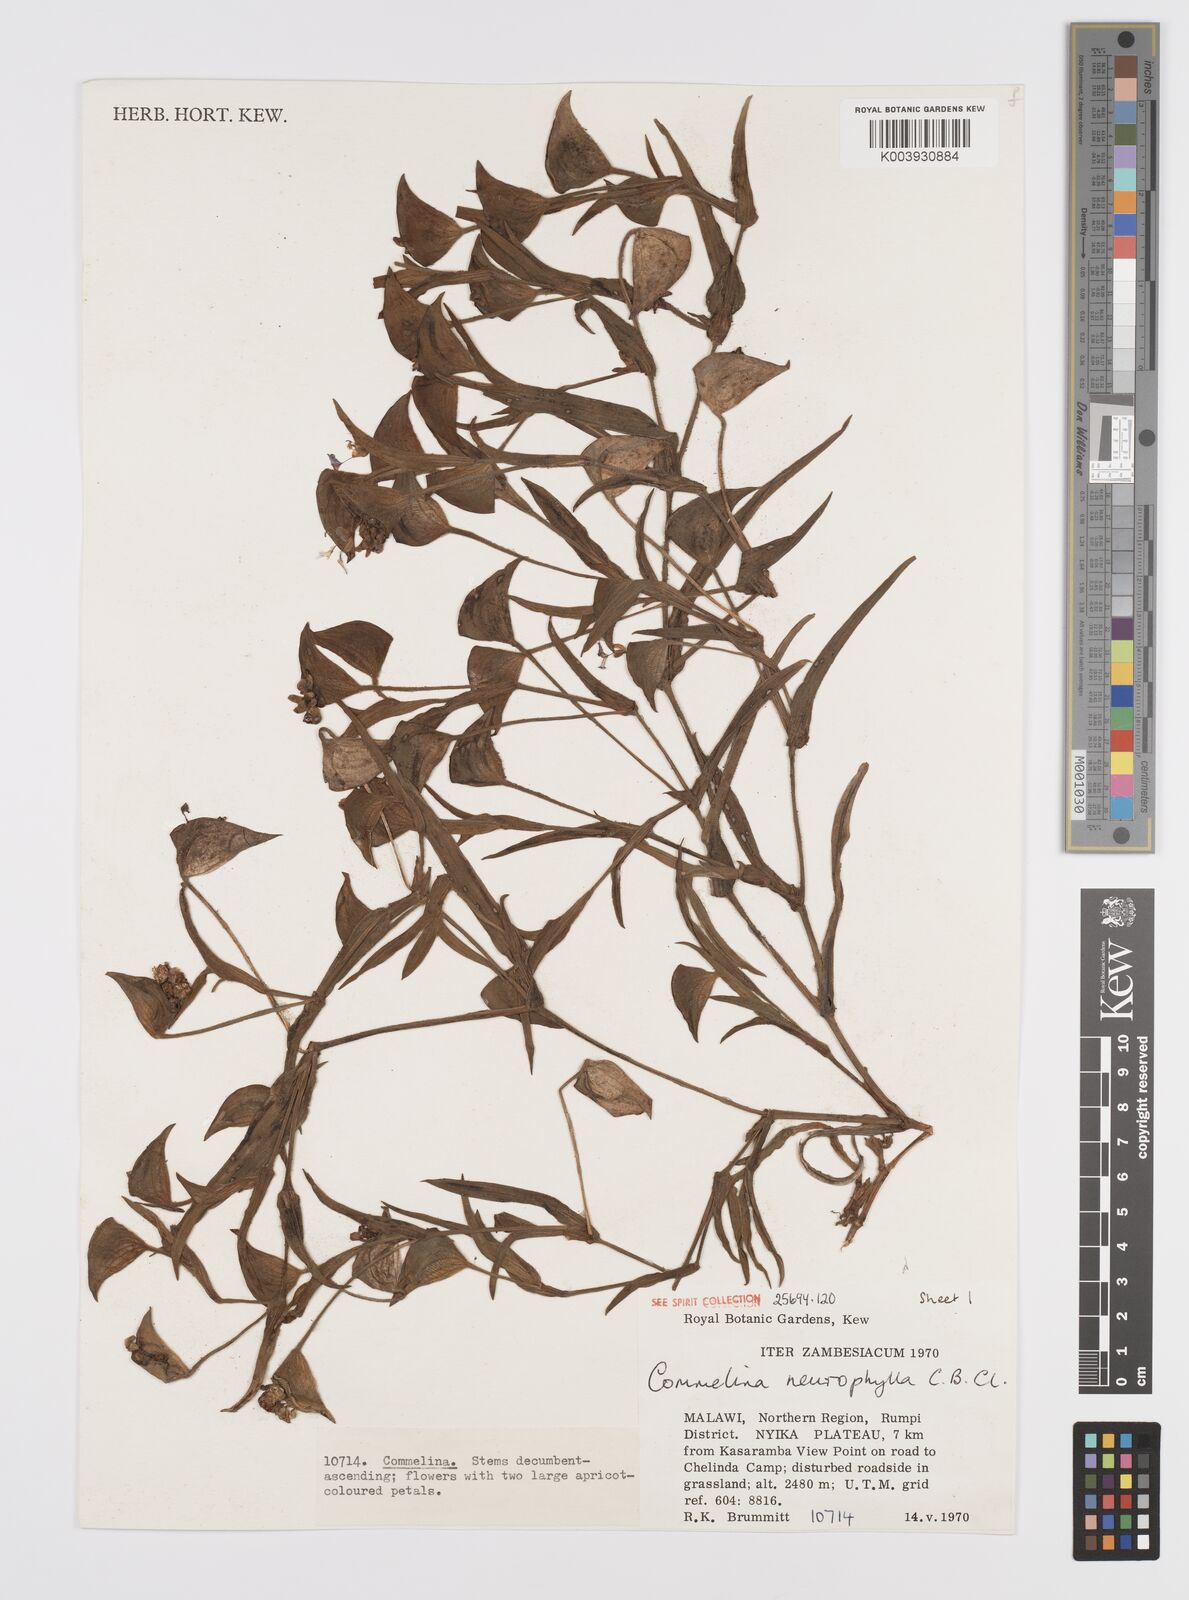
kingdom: Plantae
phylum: Tracheophyta
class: Liliopsida
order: Commelinales
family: Commelinaceae
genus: Commelina
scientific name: Commelina neurophylla
